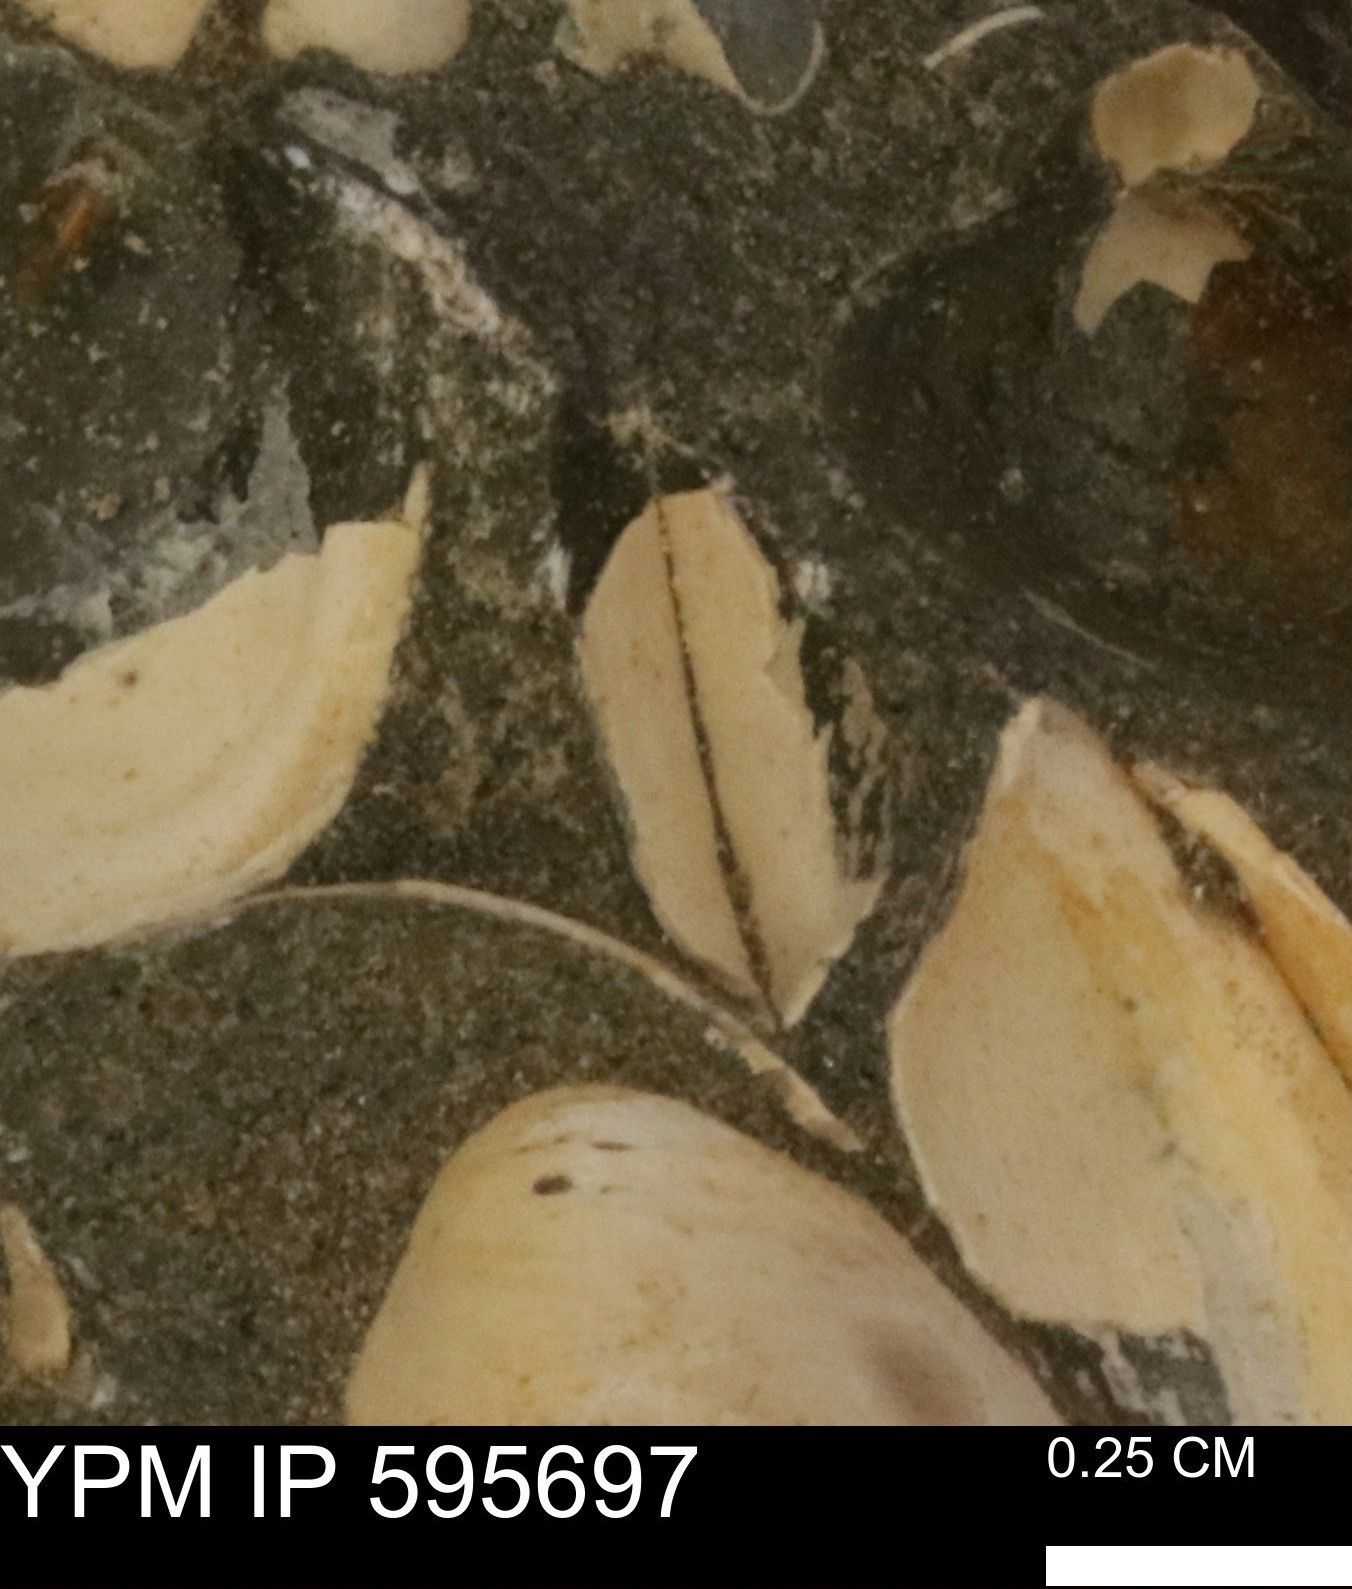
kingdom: Animalia
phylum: Mollusca
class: Bivalvia
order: Cardiida
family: Cardiidae
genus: Protocardia
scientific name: Protocardia
